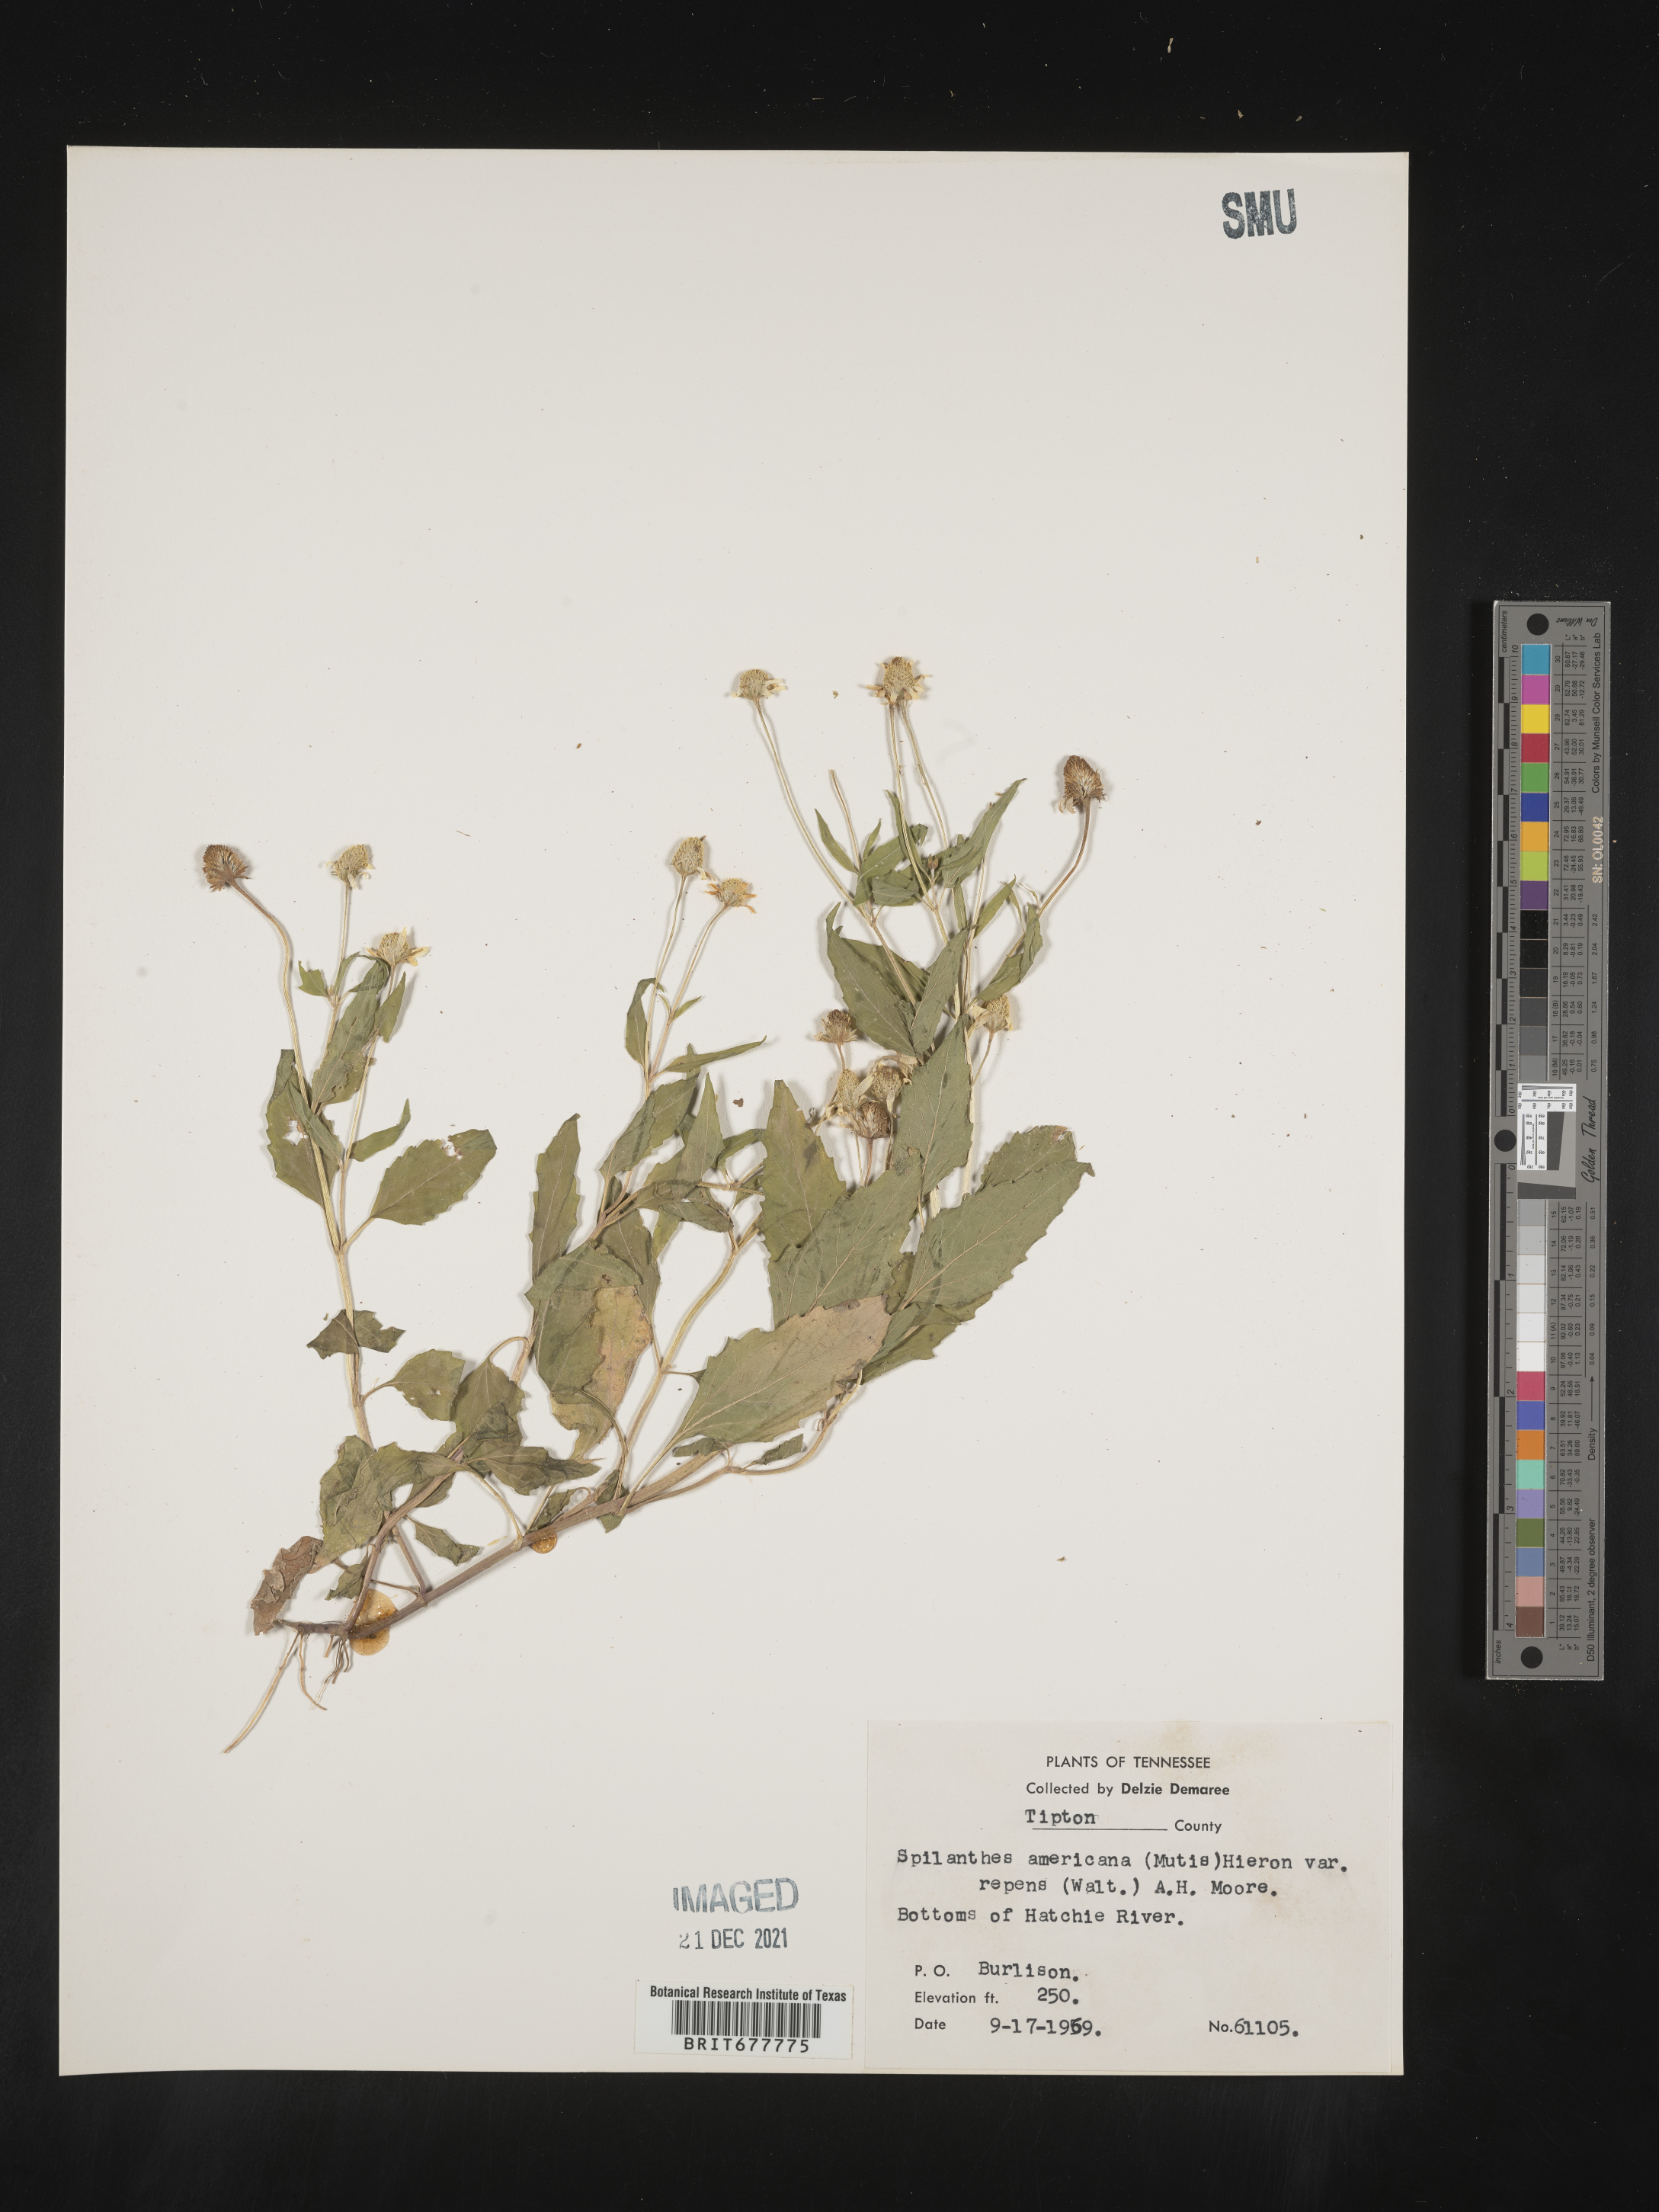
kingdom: Plantae
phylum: Tracheophyta
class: Magnoliopsida
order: Asterales
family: Asteraceae
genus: Spilanthes
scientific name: Spilanthes
